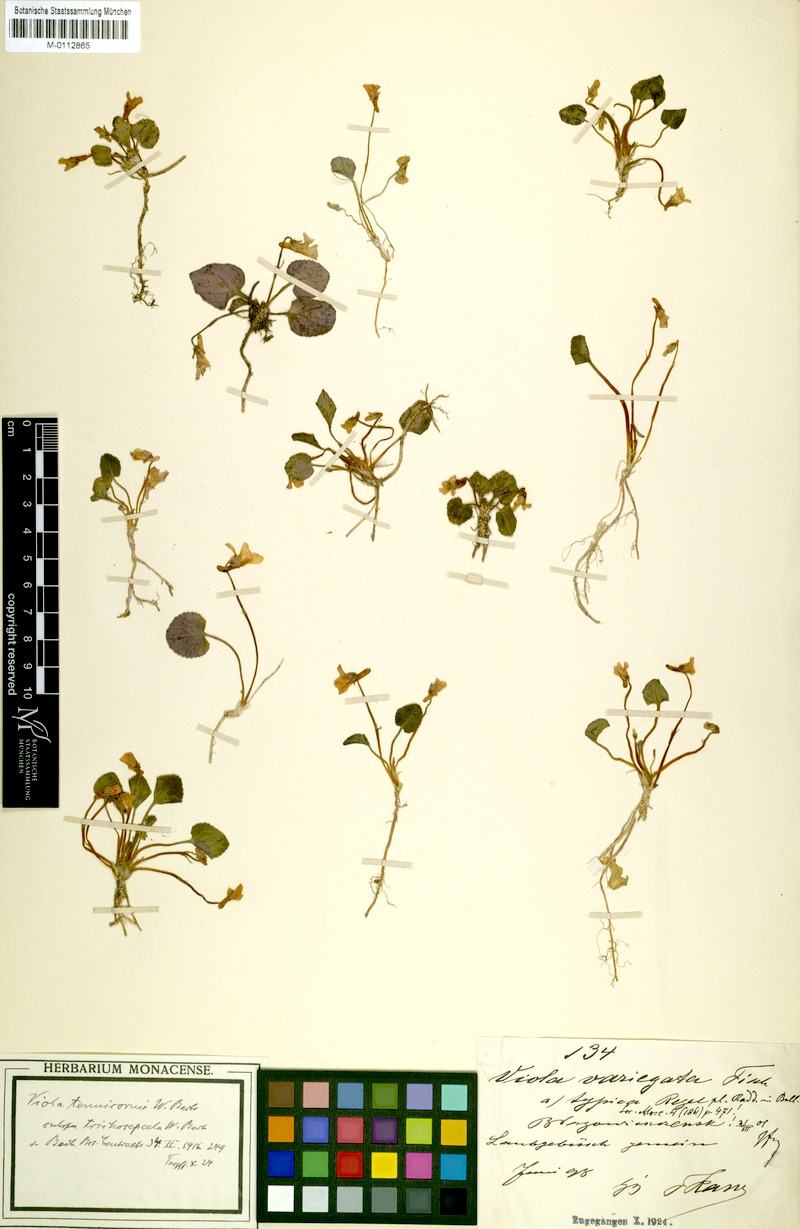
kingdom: Plantae
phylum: Tracheophyta
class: Magnoliopsida
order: Malpighiales
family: Violaceae
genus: Viola
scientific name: Viola tenuicornis
